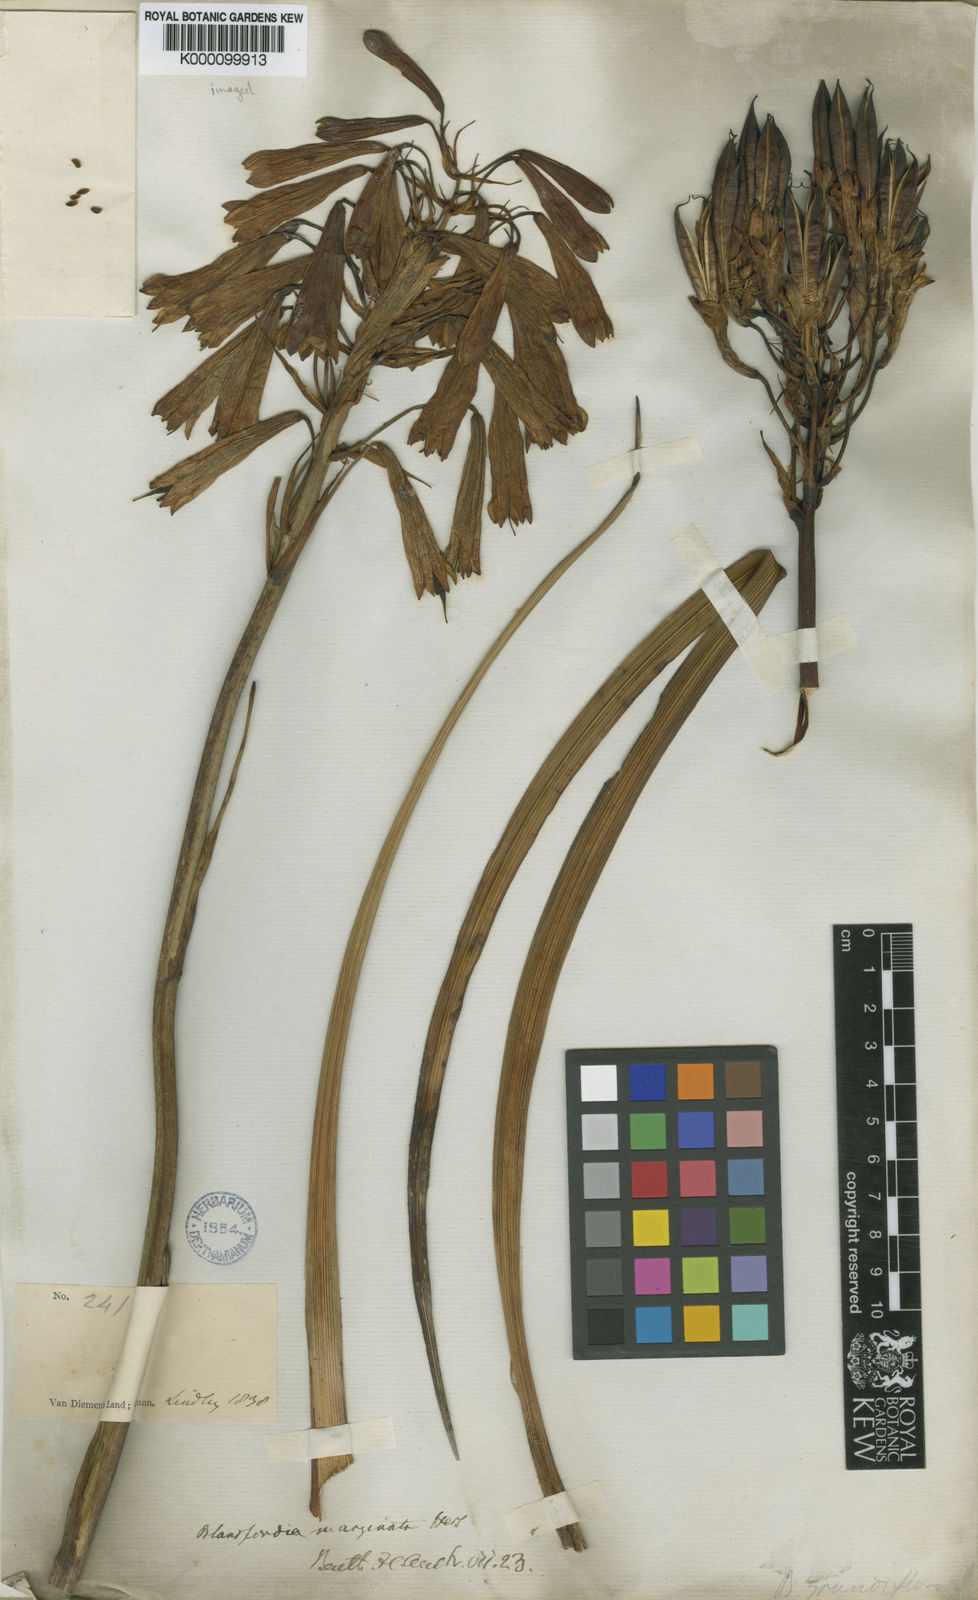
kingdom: Plantae
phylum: Tracheophyta
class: Liliopsida
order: Asparagales
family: Blandfordiaceae
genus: Blandfordia
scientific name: Blandfordia punicea
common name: Tasmanian christmas-bell
